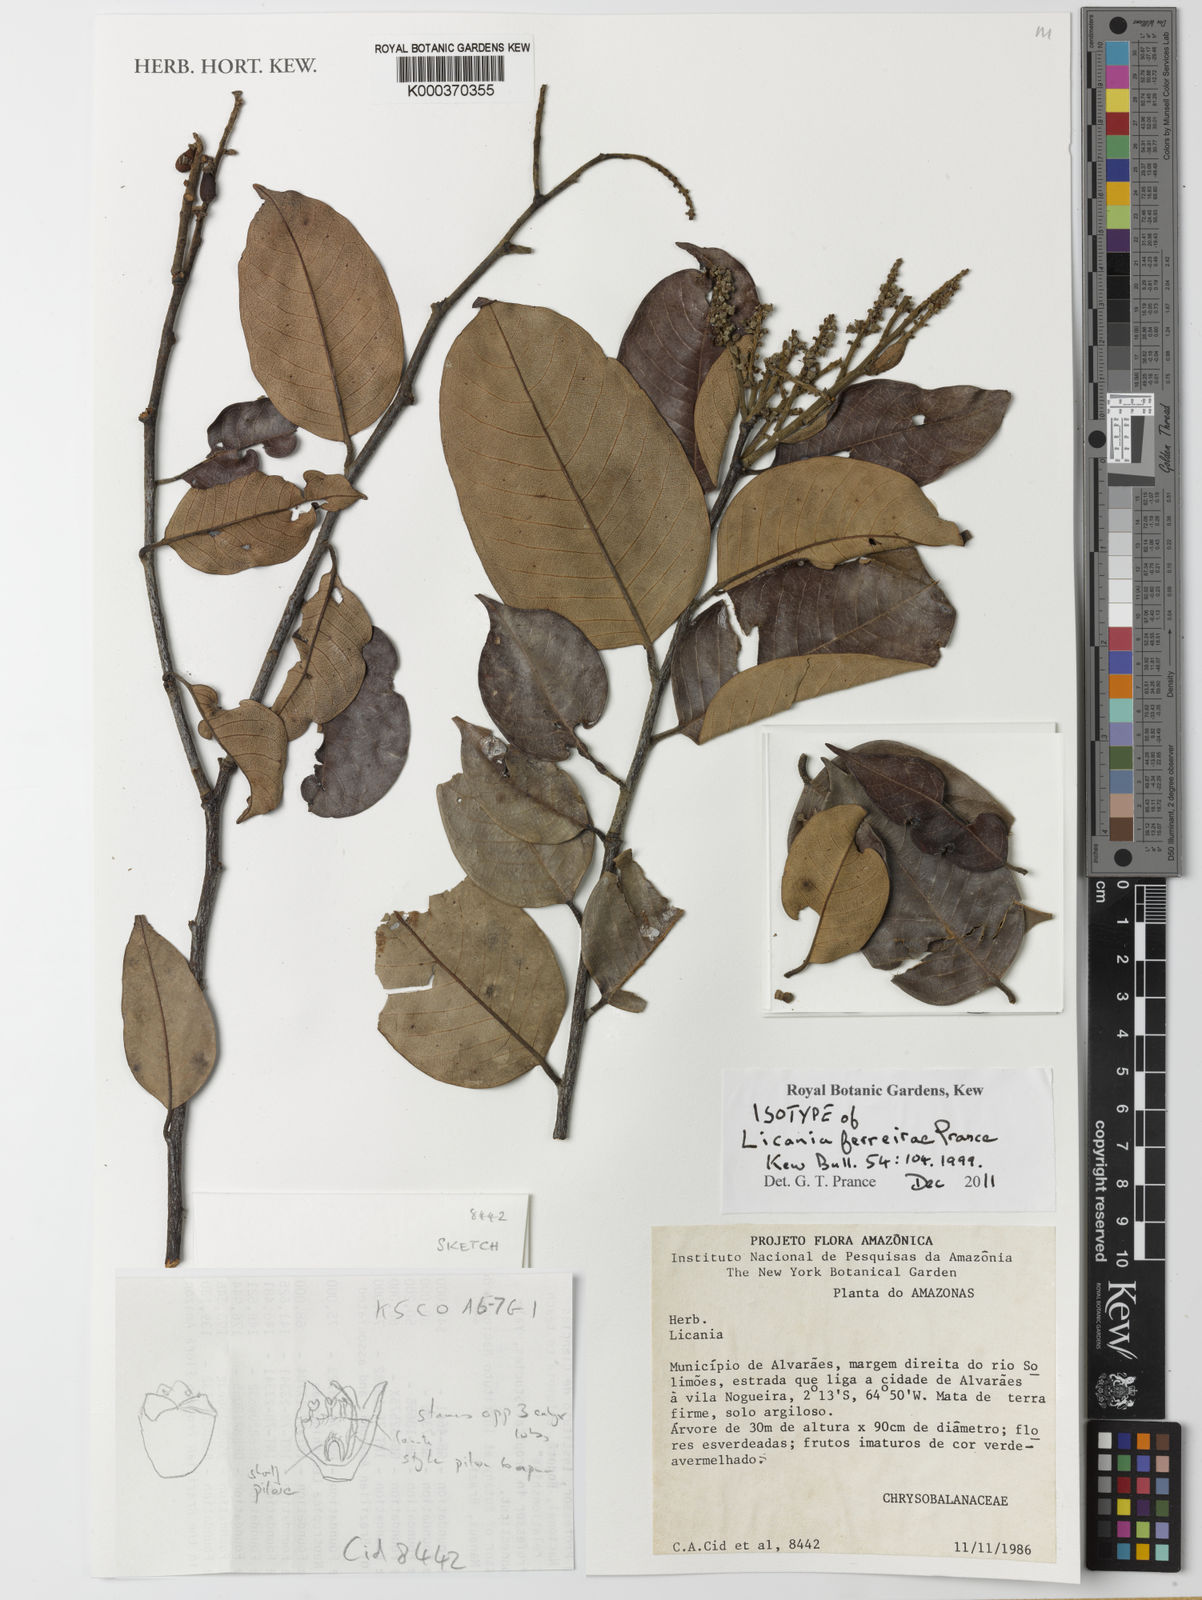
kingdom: Plantae
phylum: Tracheophyta
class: Magnoliopsida
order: Malpighiales
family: Chrysobalanaceae
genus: Licania
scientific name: Licania ferreirae
